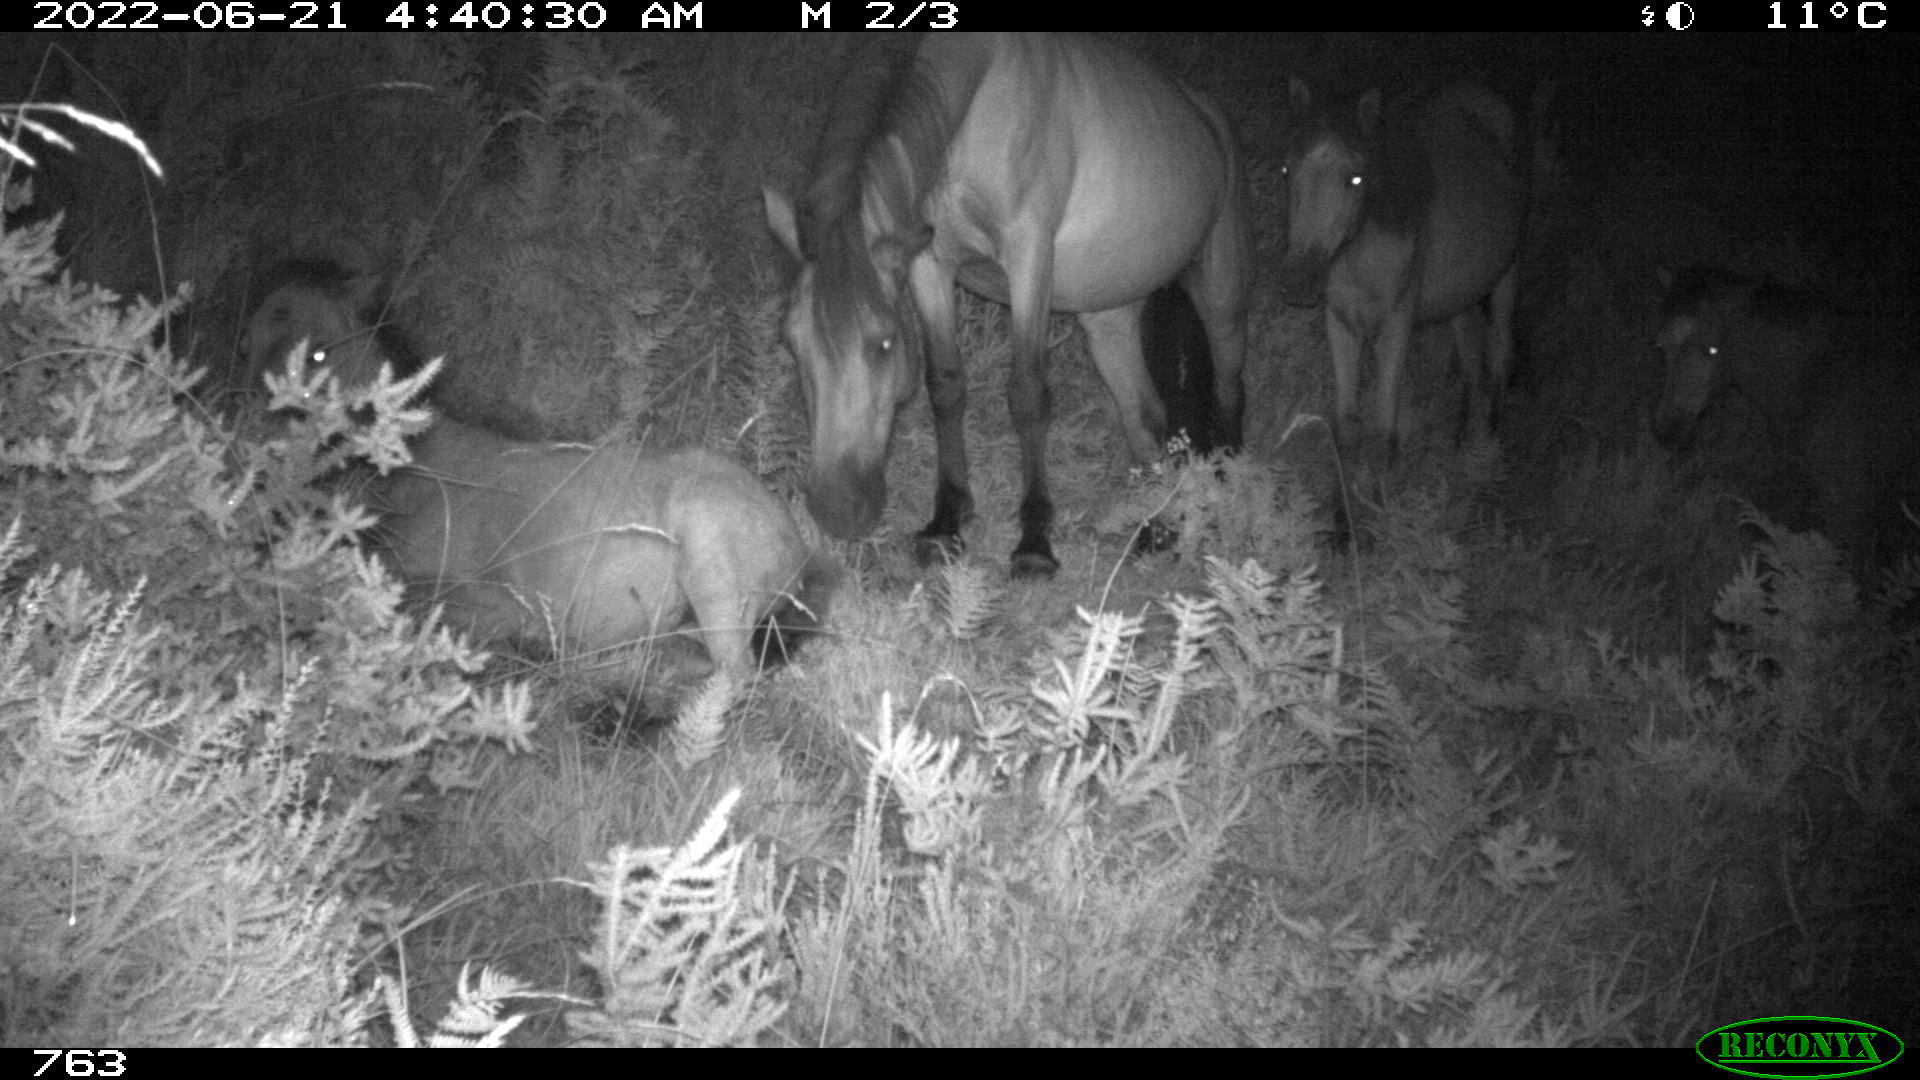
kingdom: Animalia
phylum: Chordata
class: Mammalia
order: Perissodactyla
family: Equidae
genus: Equus
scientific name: Equus caballus
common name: Horse
